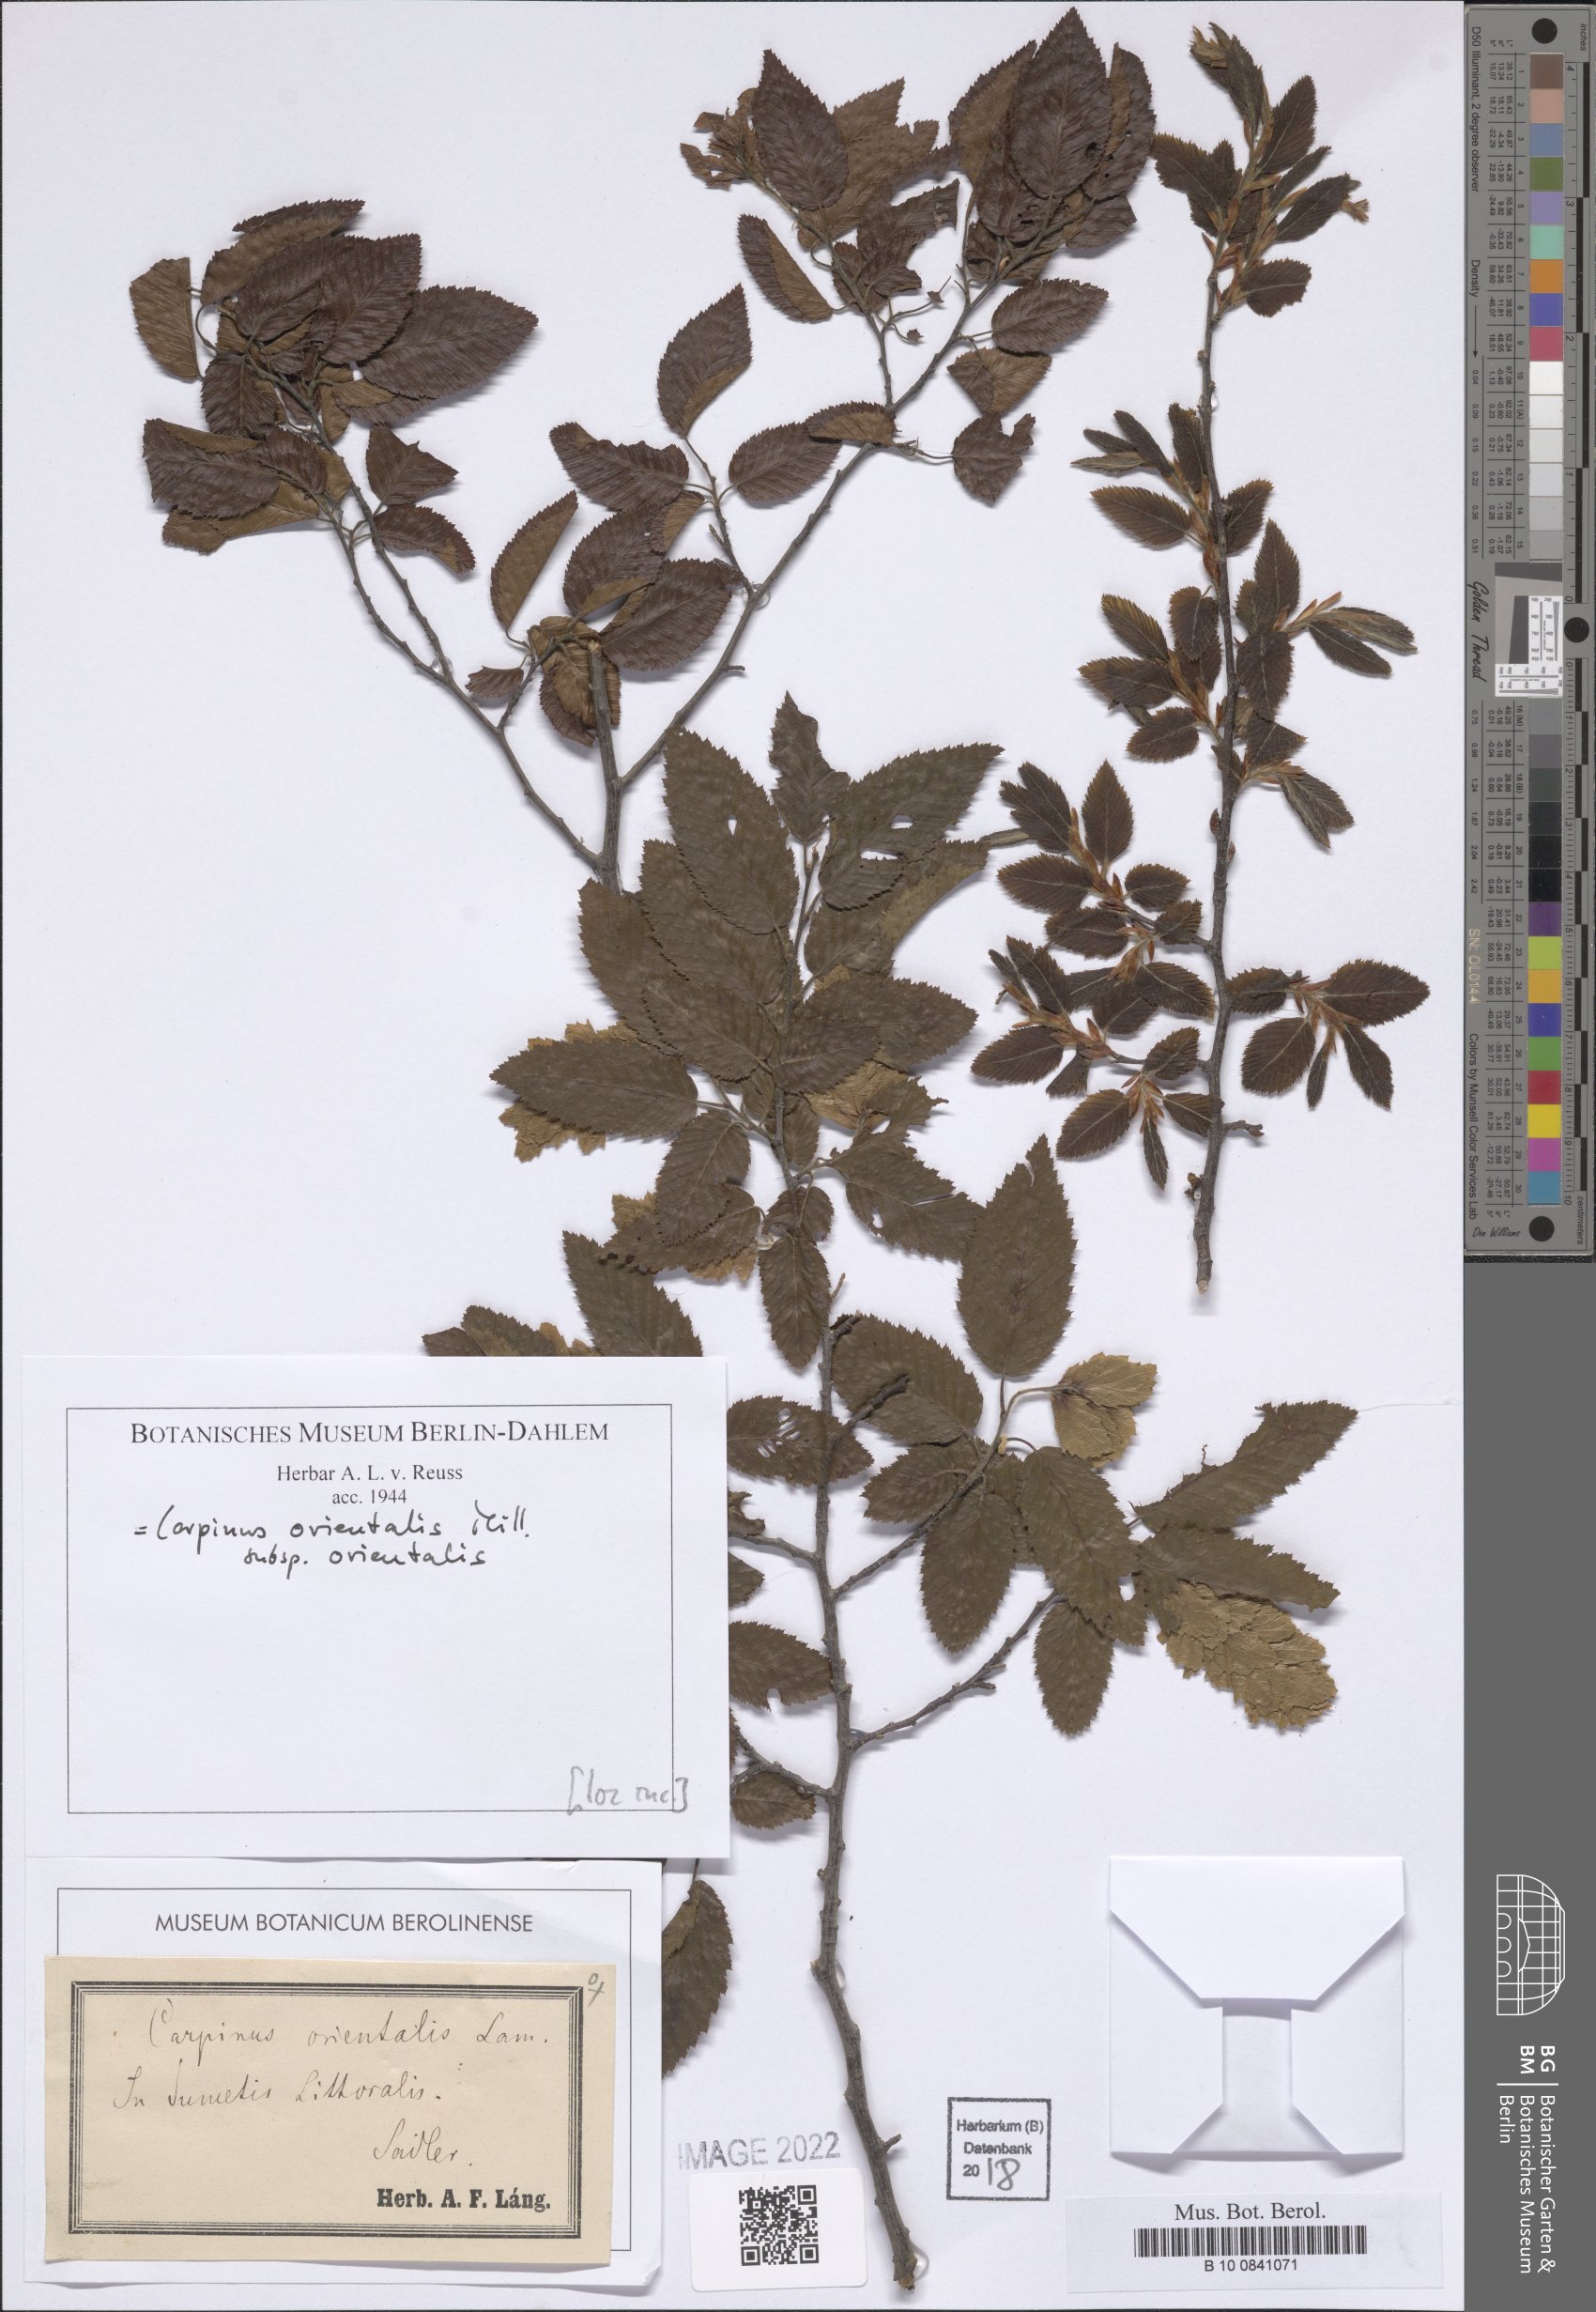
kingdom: Plantae
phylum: Tracheophyta
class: Magnoliopsida
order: Fagales
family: Betulaceae
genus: Carpinus
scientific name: Carpinus orientalis
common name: Eastern hornbeam
